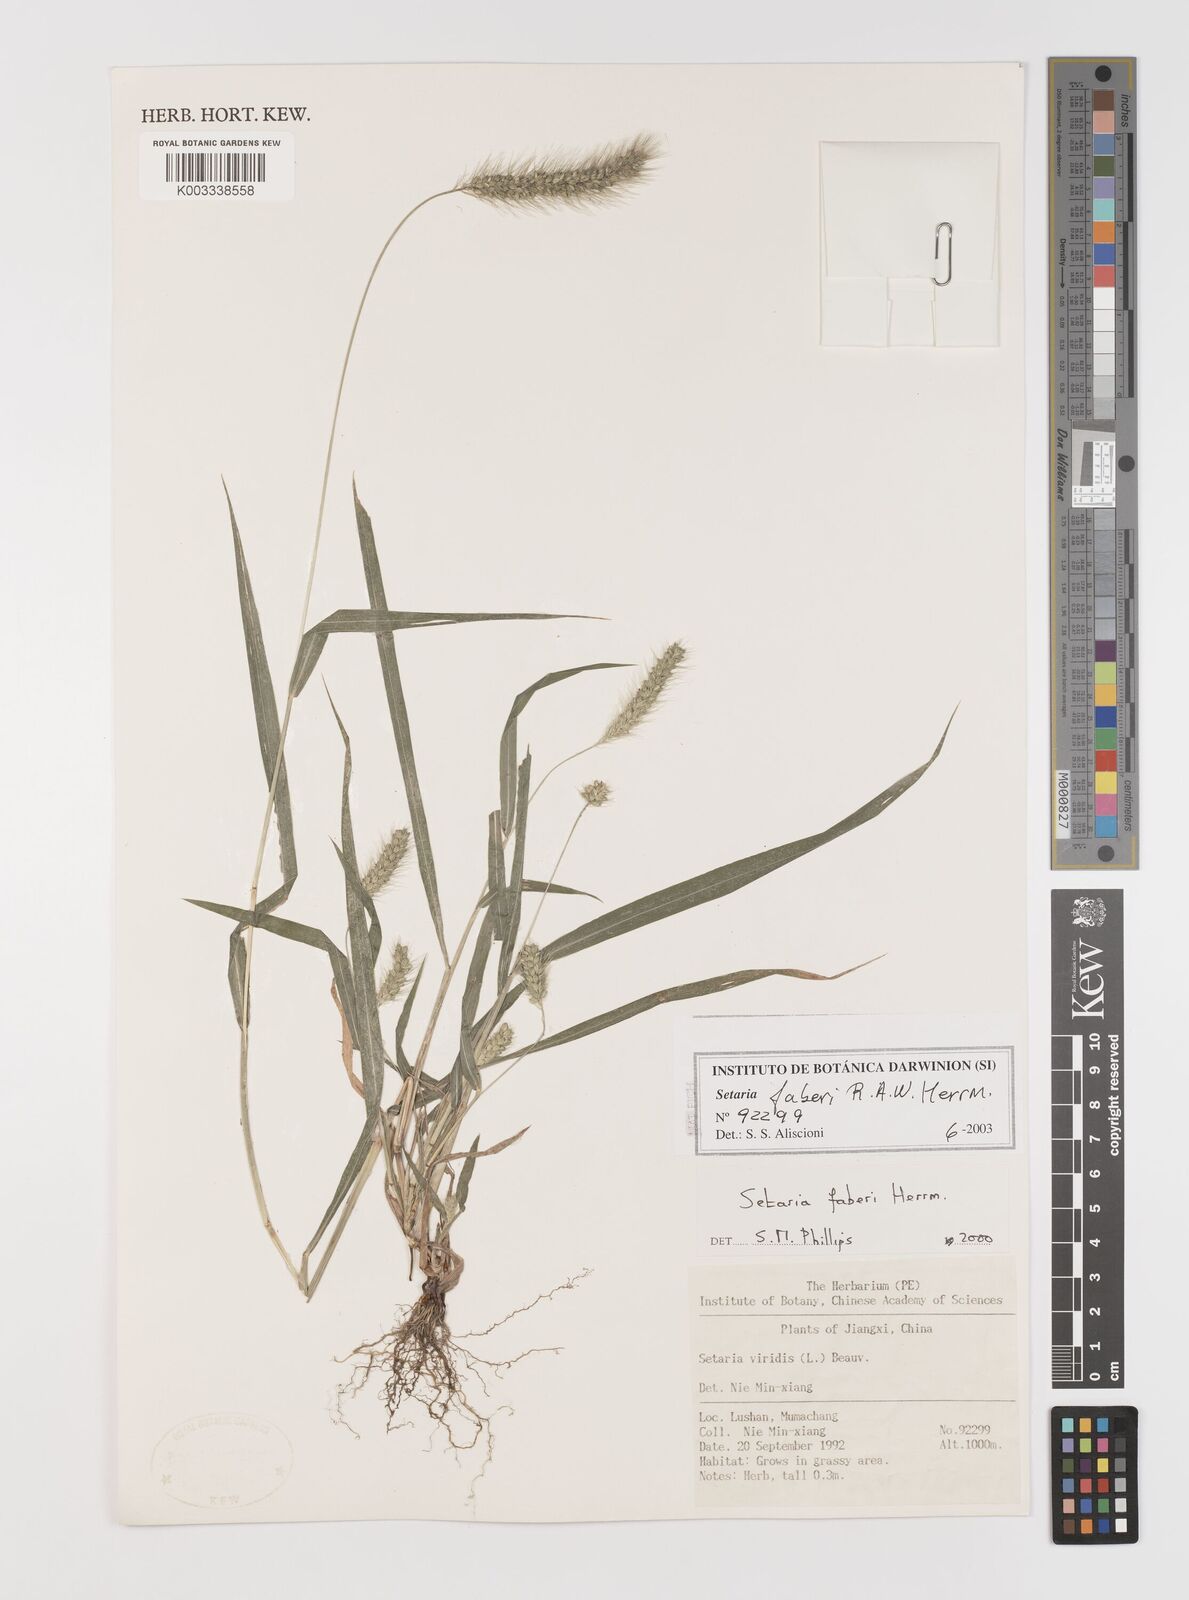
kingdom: Plantae
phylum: Tracheophyta
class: Liliopsida
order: Poales
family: Poaceae
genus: Setaria
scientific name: Setaria faberi
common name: Nodding bristle-grass
